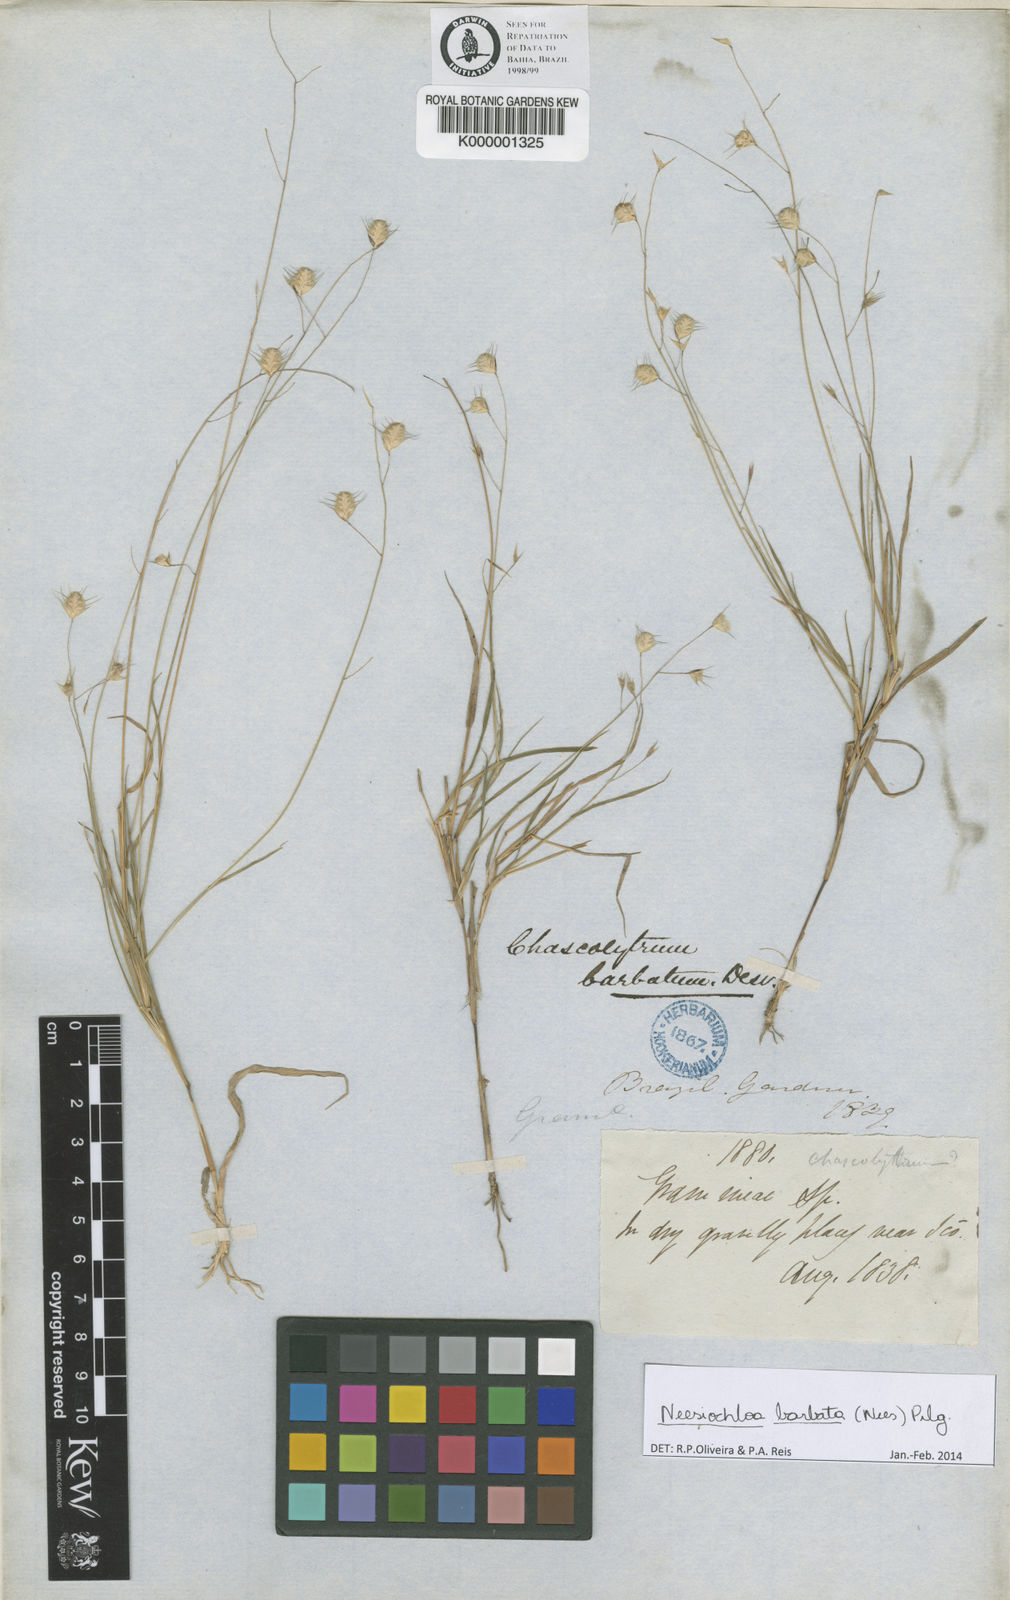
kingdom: Plantae
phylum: Tracheophyta
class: Liliopsida
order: Poales
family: Poaceae
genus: Neesiochloa
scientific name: Neesiochloa barbata
